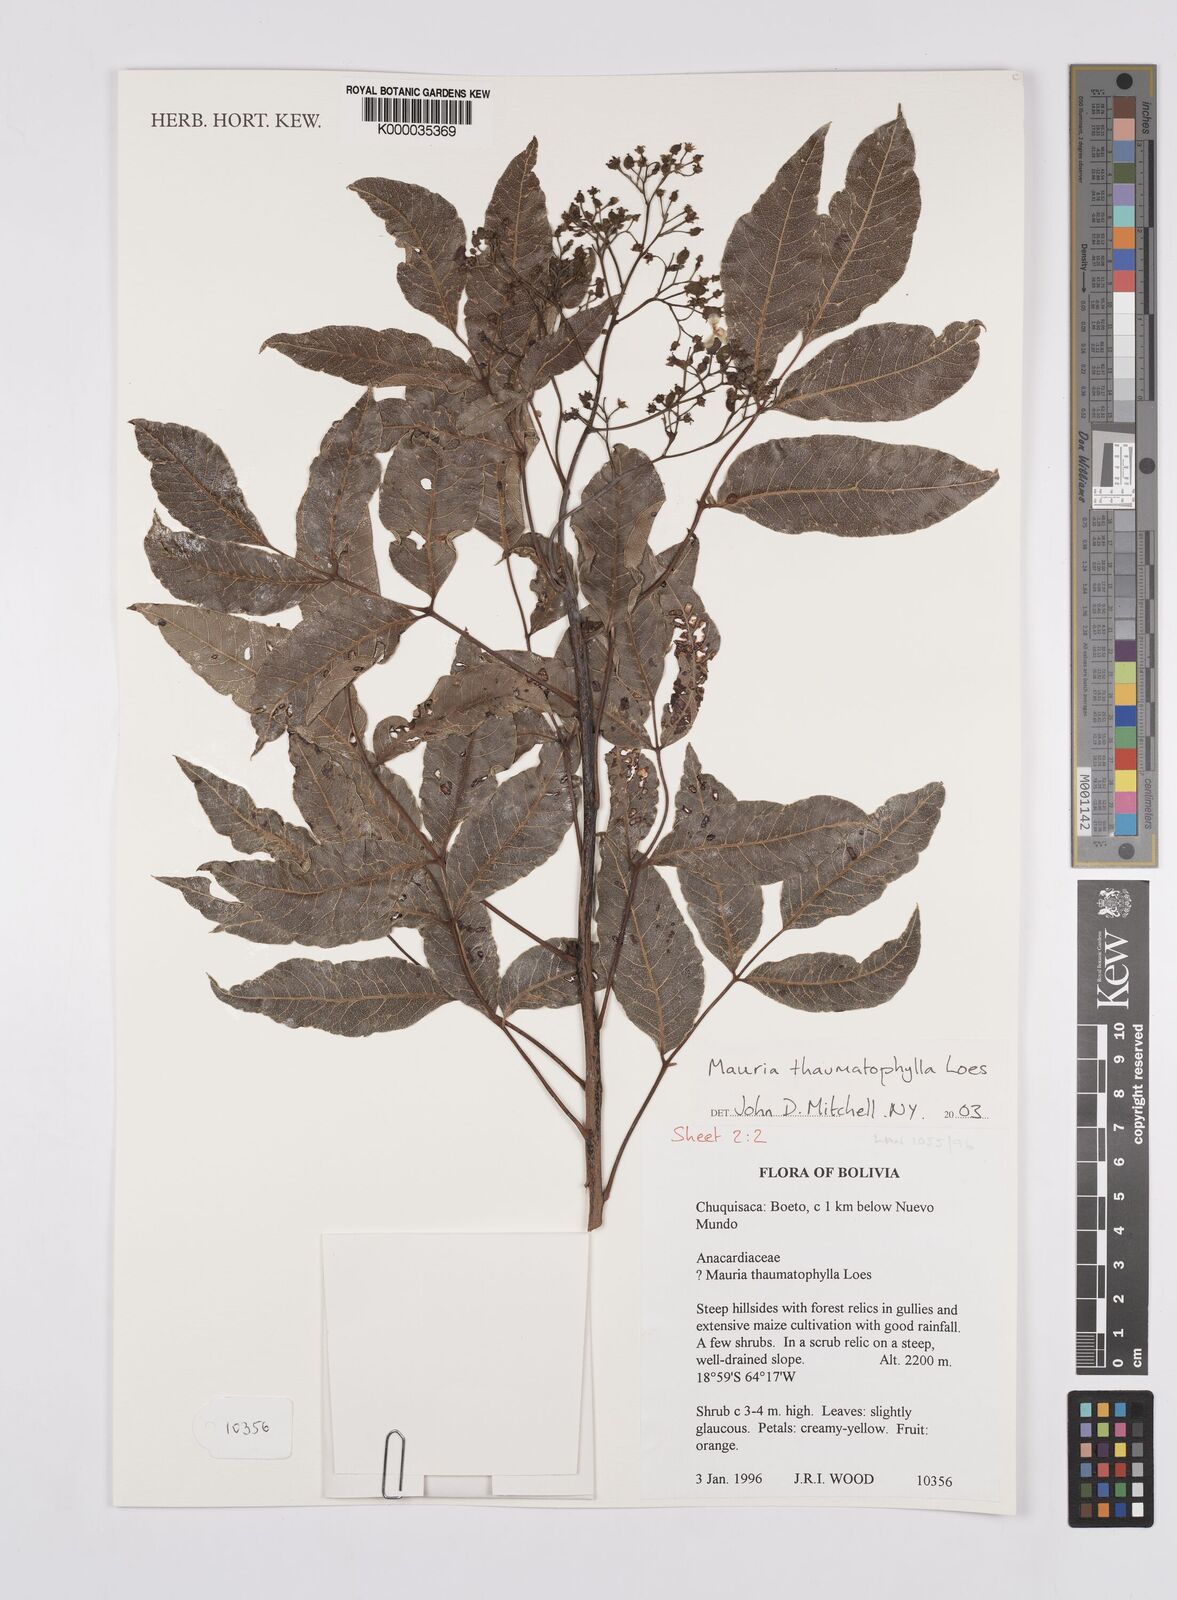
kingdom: Plantae
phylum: Tracheophyta
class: Magnoliopsida
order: Sapindales
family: Anacardiaceae
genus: Mauria
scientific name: Mauria thaumatophylla
